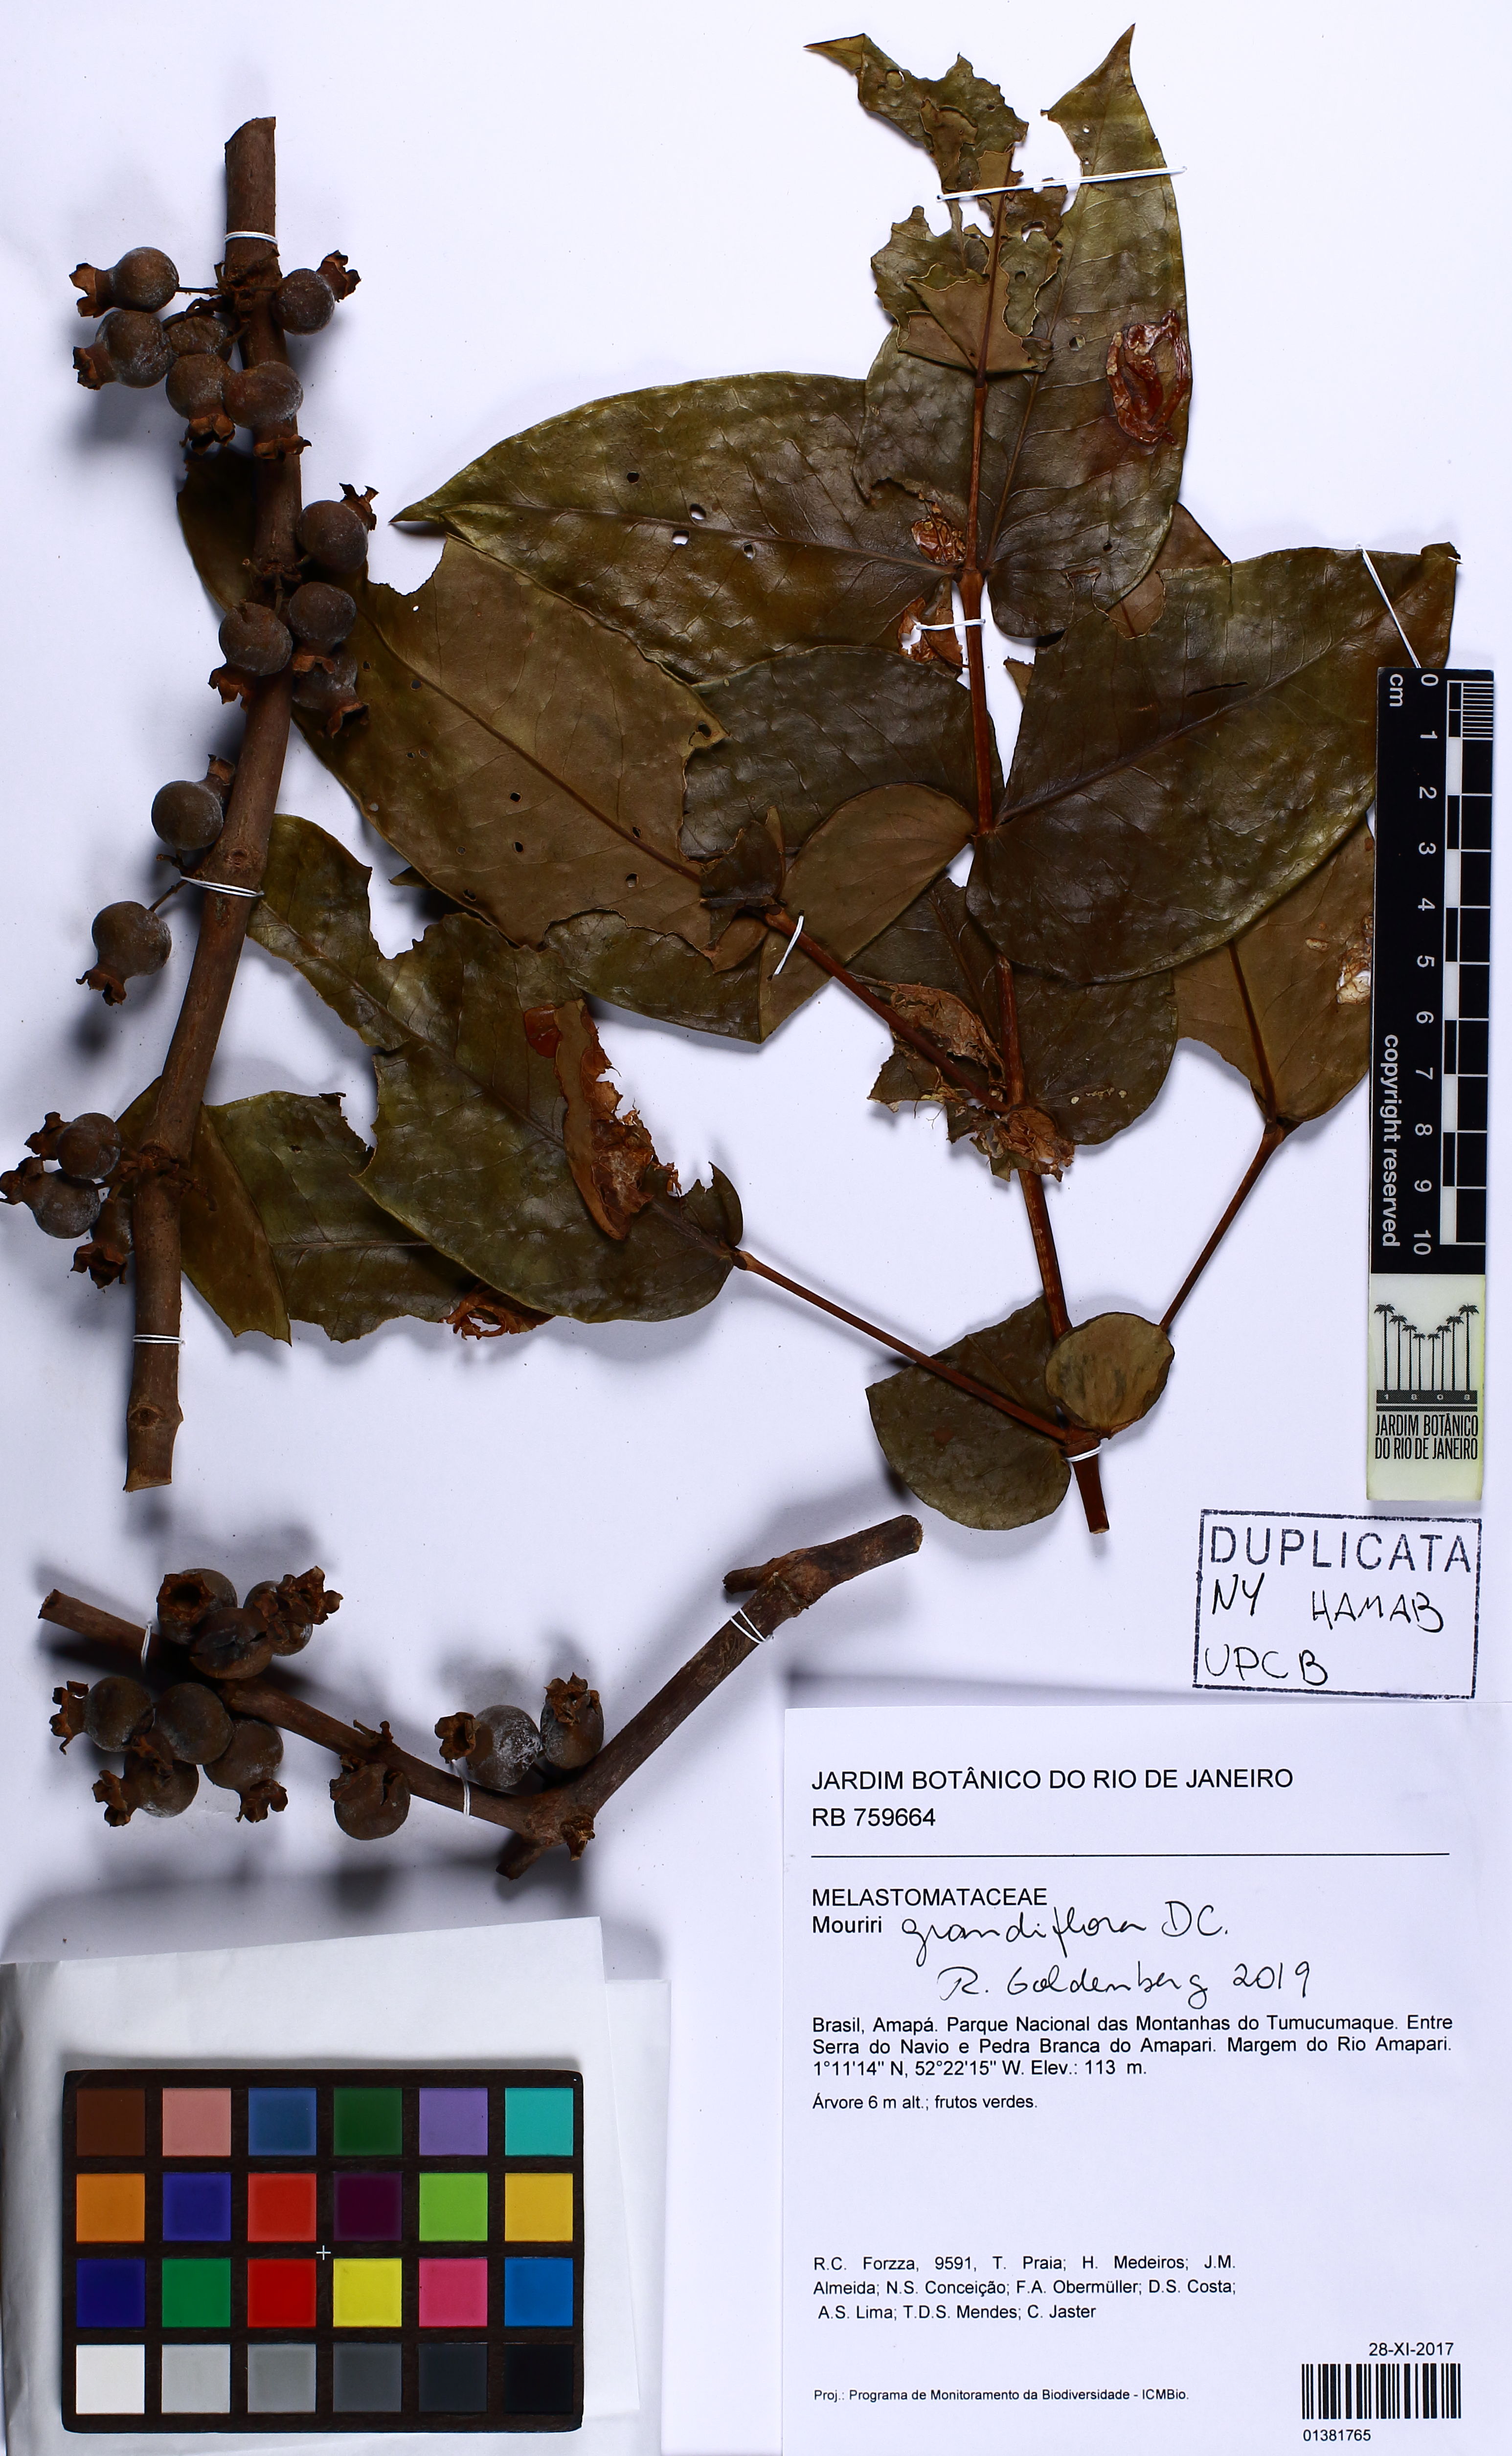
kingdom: Plantae
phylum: Tracheophyta
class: Magnoliopsida
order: Myrtales
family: Melastomataceae
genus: Mouriri
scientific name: Mouriri grandiflora
